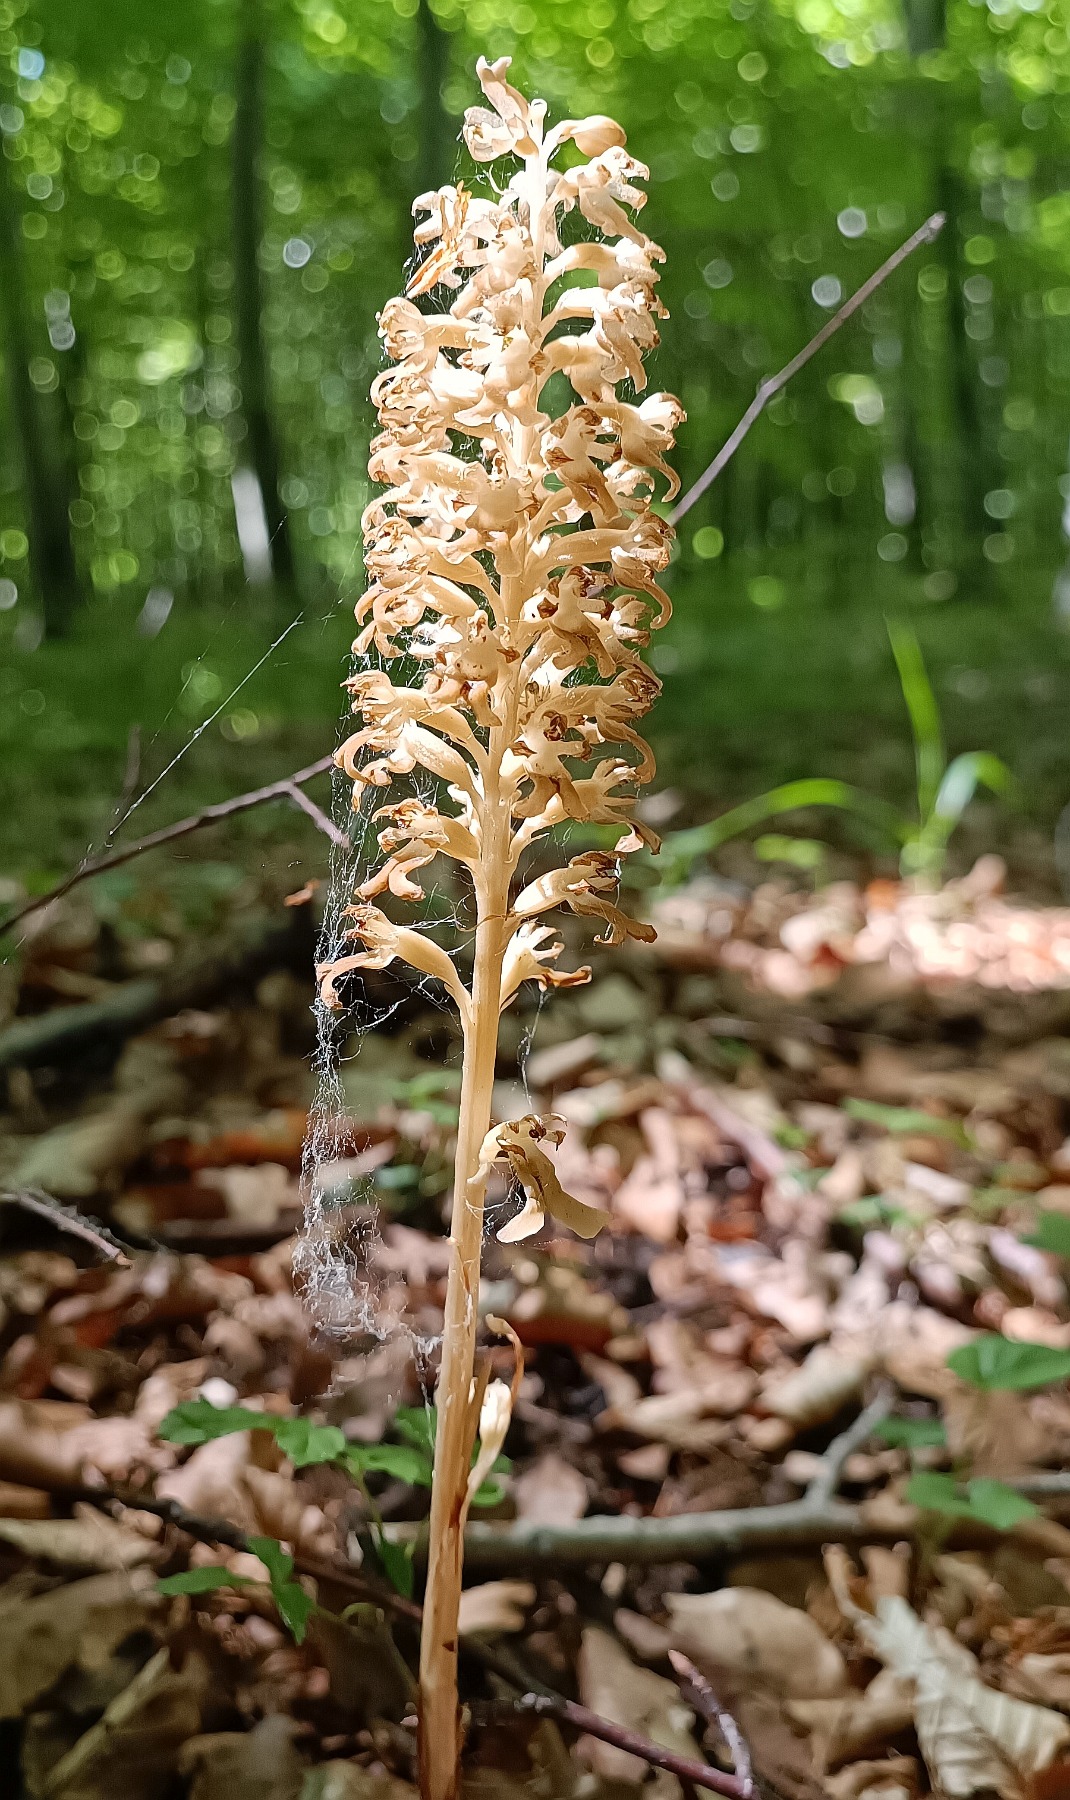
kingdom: Plantae
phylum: Tracheophyta
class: Liliopsida
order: Asparagales
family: Orchidaceae
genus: Neottia
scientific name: Neottia nidus-avis
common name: Rederod
